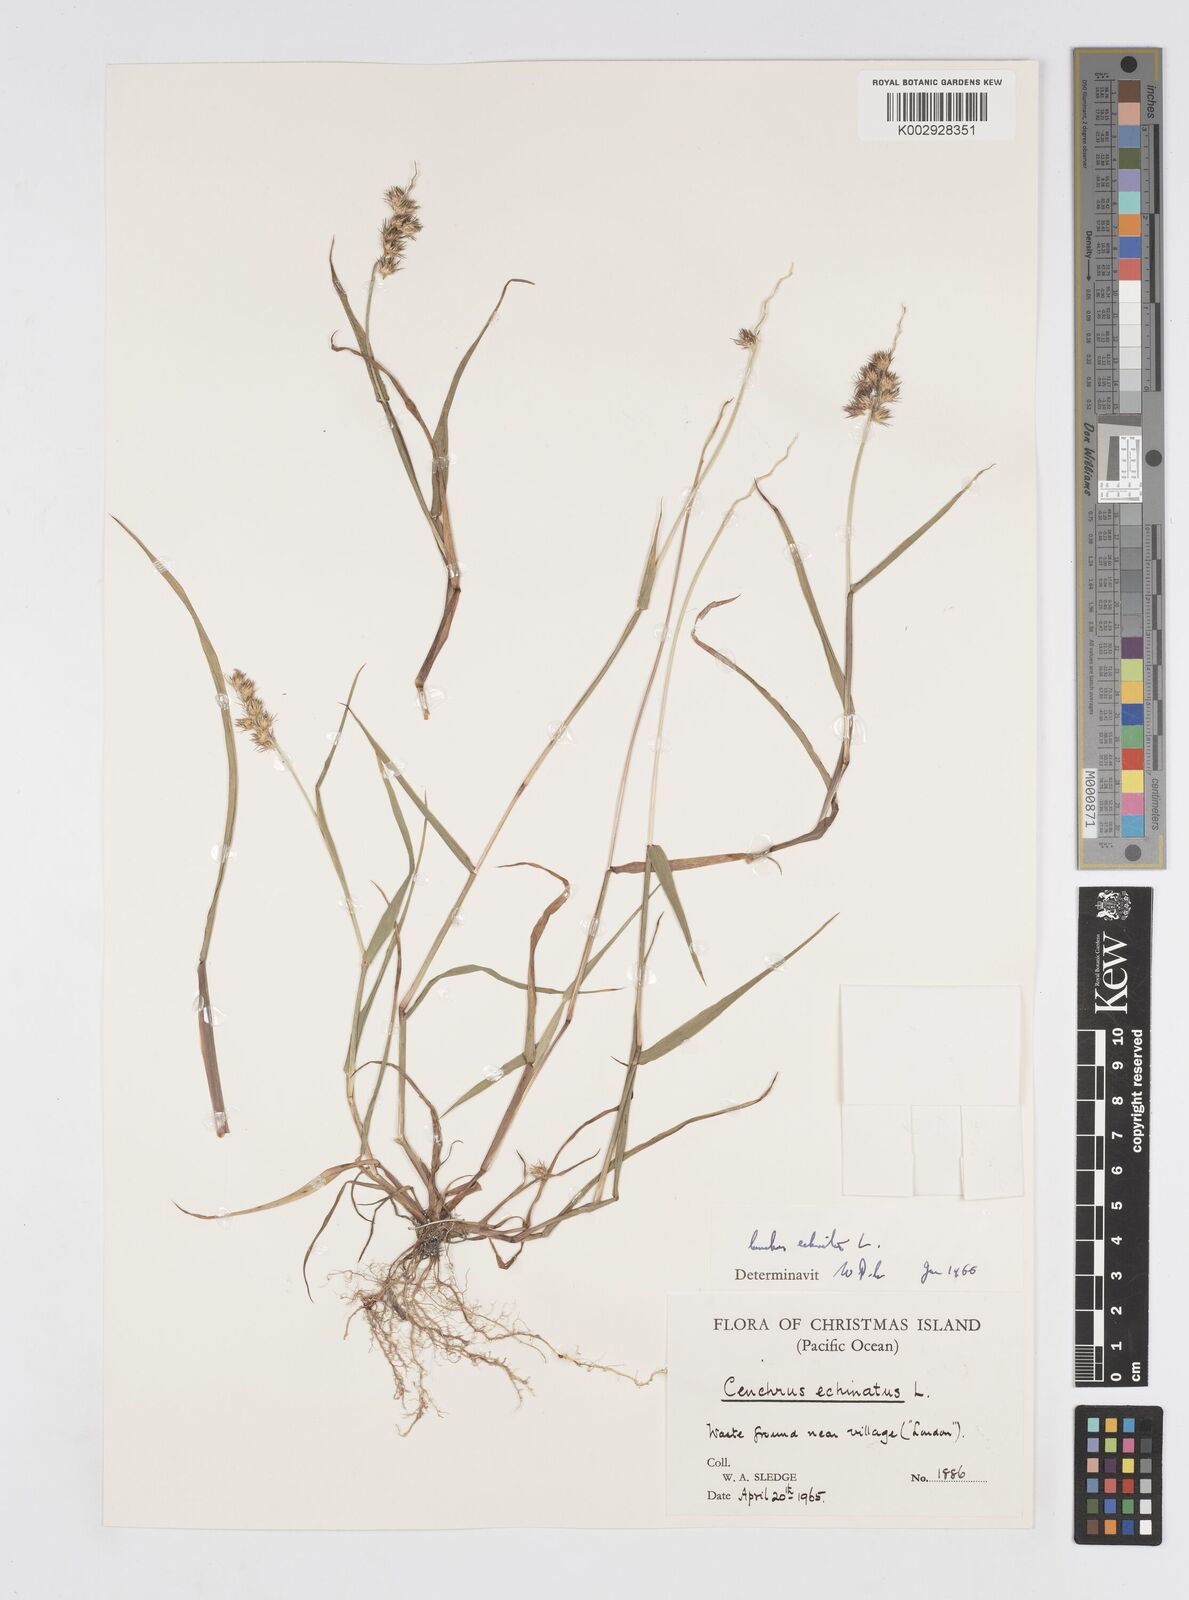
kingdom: Plantae
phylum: Tracheophyta
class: Liliopsida
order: Poales
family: Poaceae
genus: Cenchrus
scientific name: Cenchrus echinatus
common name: Southern sandbur
